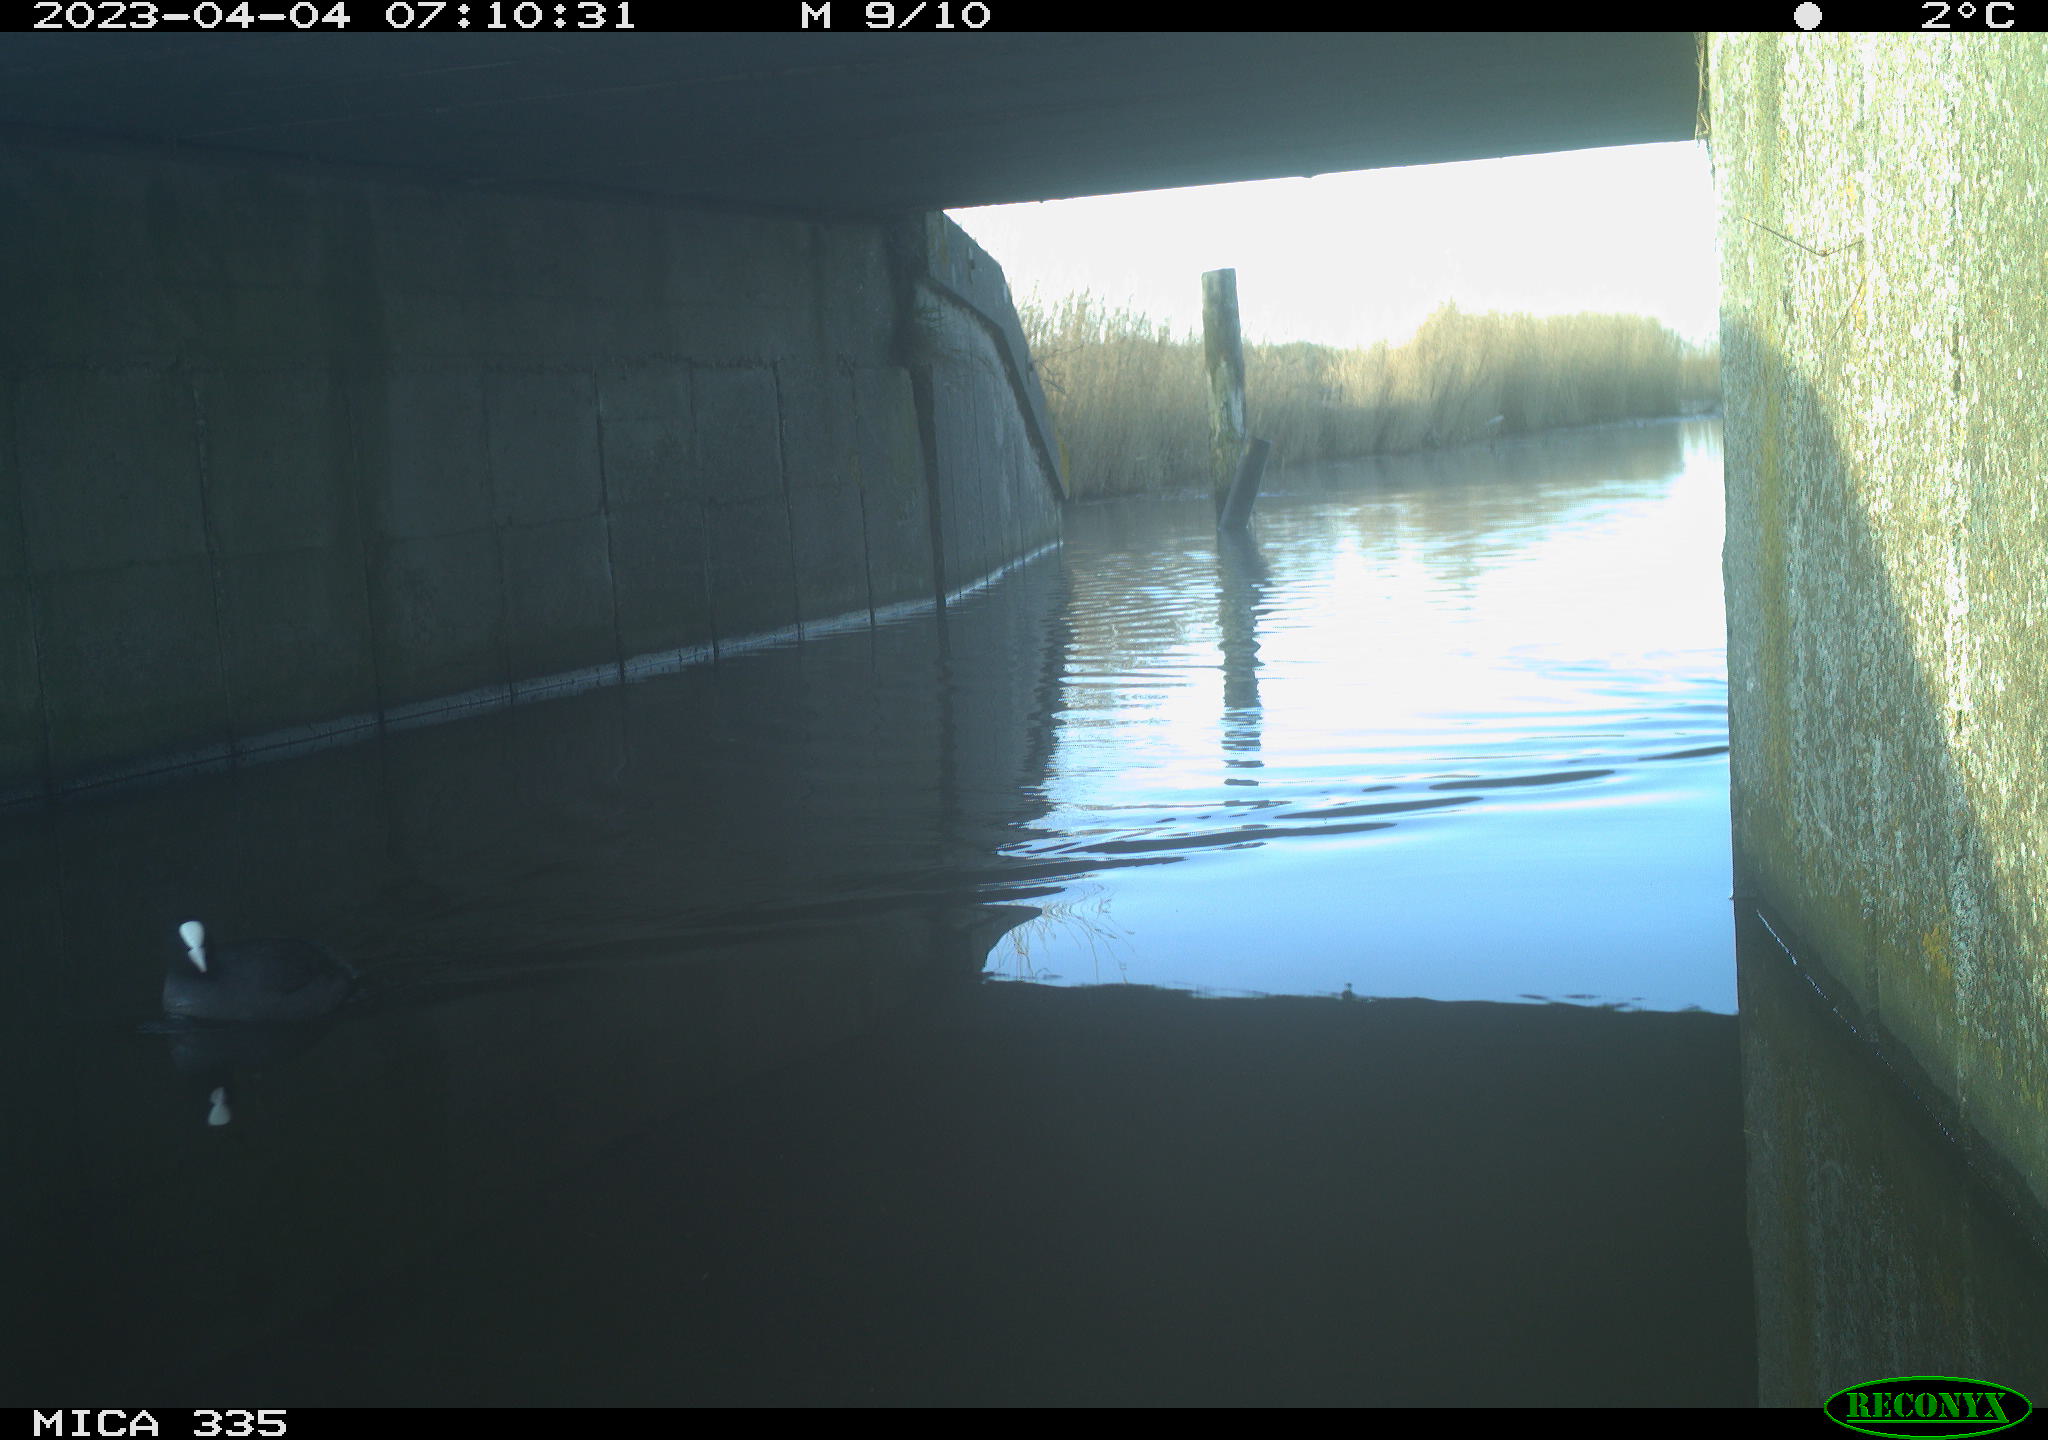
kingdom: Animalia
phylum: Chordata
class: Aves
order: Anseriformes
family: Anatidae
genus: Anas
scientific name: Anas
